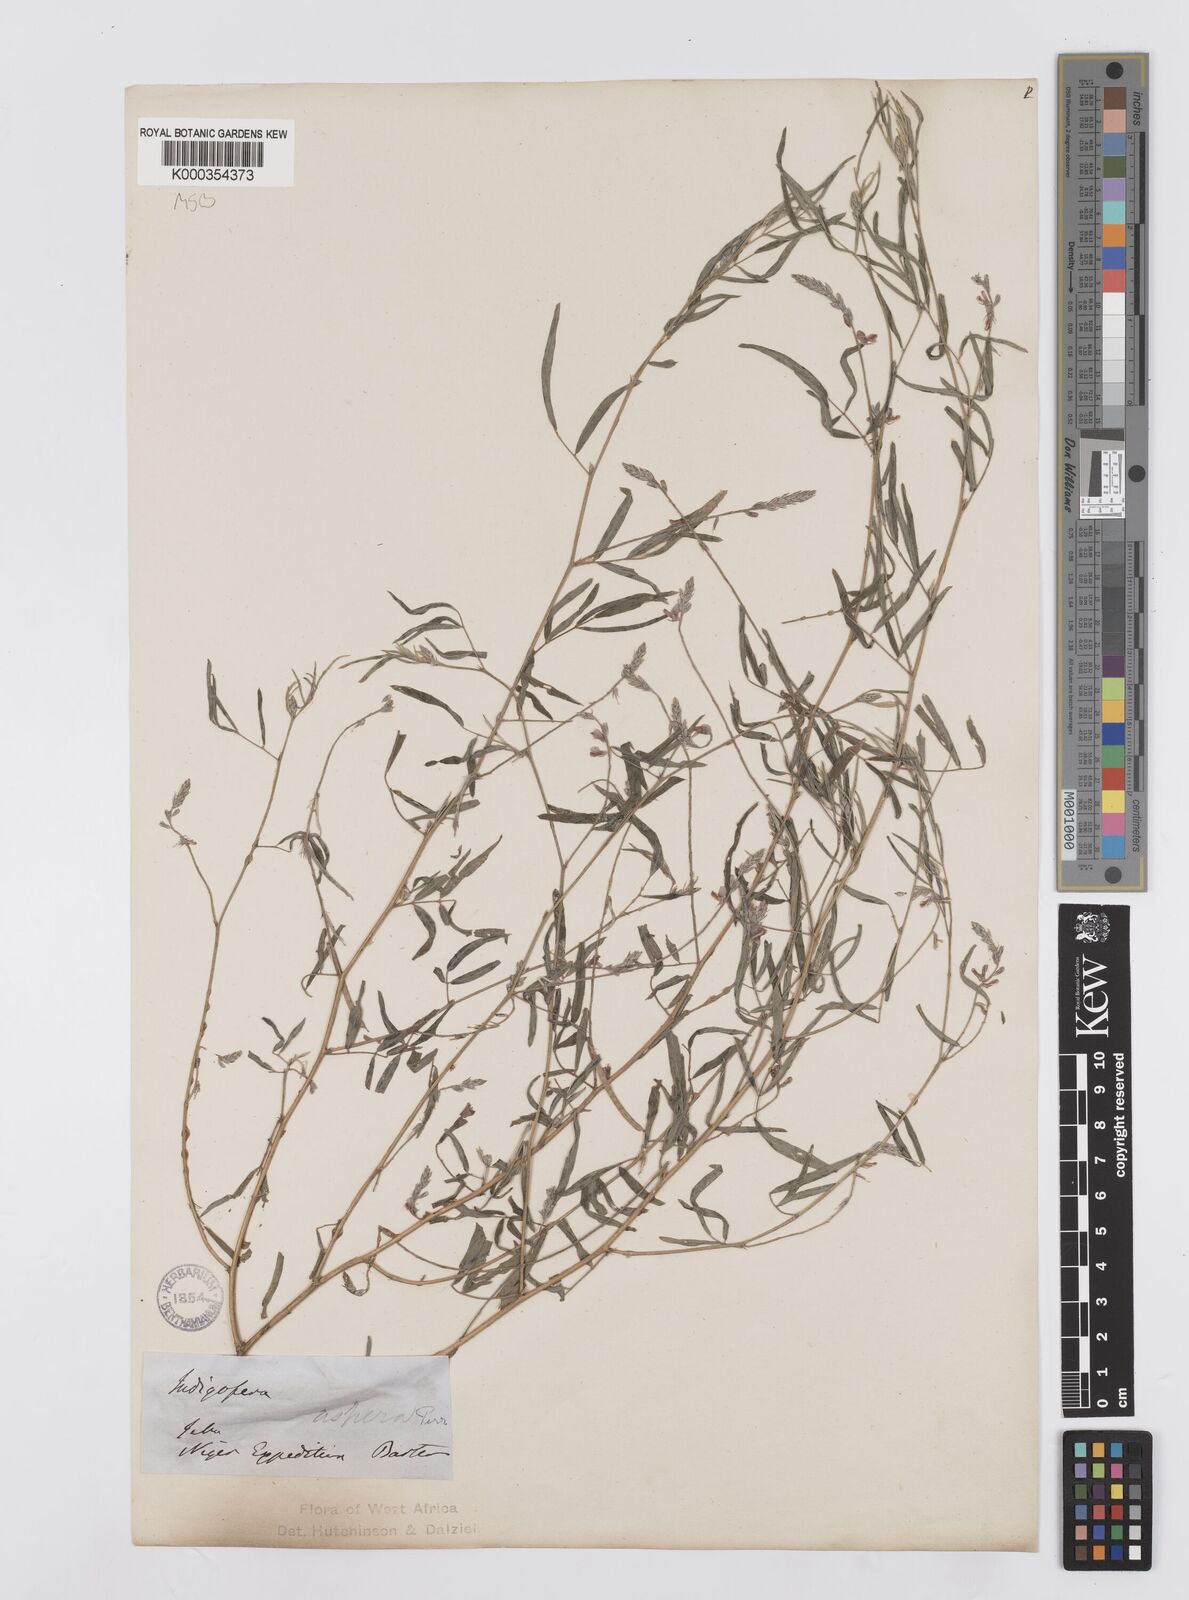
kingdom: Plantae
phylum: Tracheophyta
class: Magnoliopsida
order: Fabales
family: Fabaceae
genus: Indigofera
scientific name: Indigofera aspera
